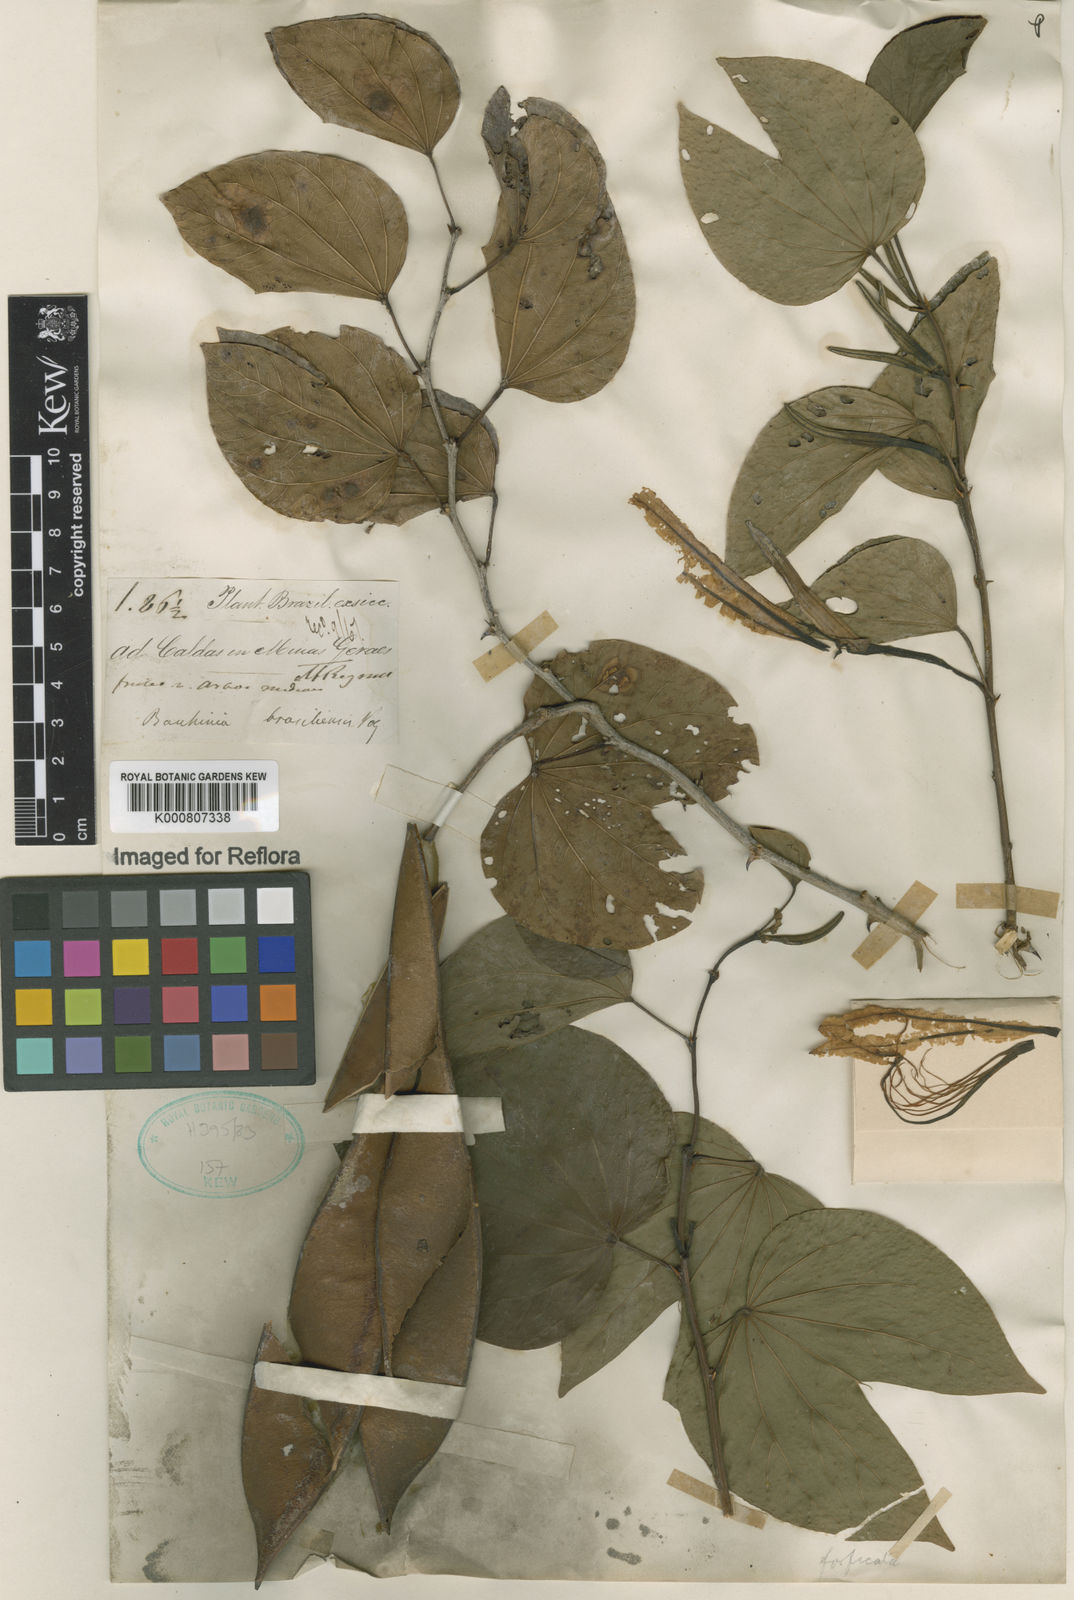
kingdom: Plantae
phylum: Tracheophyta
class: Magnoliopsida
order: Fabales
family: Fabaceae
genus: Bauhinia
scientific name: Bauhinia forficata
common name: Orchid tree
